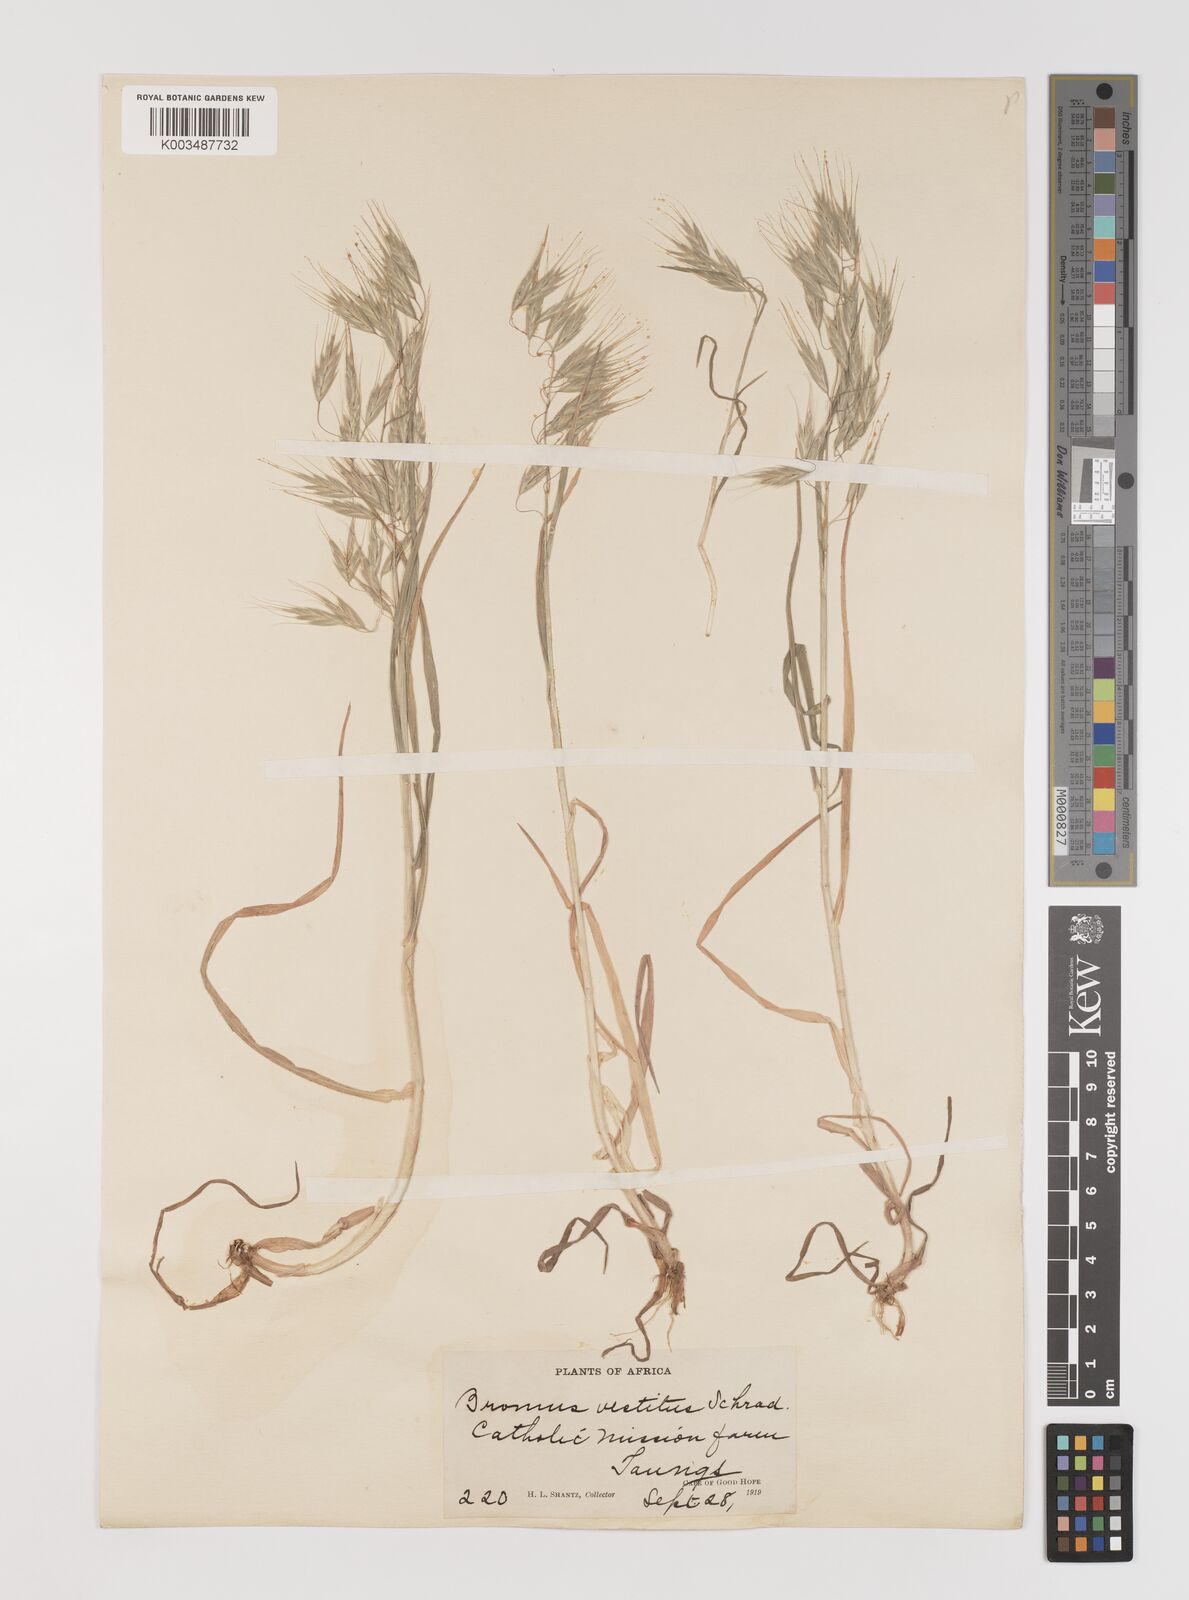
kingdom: Plantae
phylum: Tracheophyta
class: Liliopsida
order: Poales
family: Poaceae
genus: Bromus
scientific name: Bromus pectinatus
